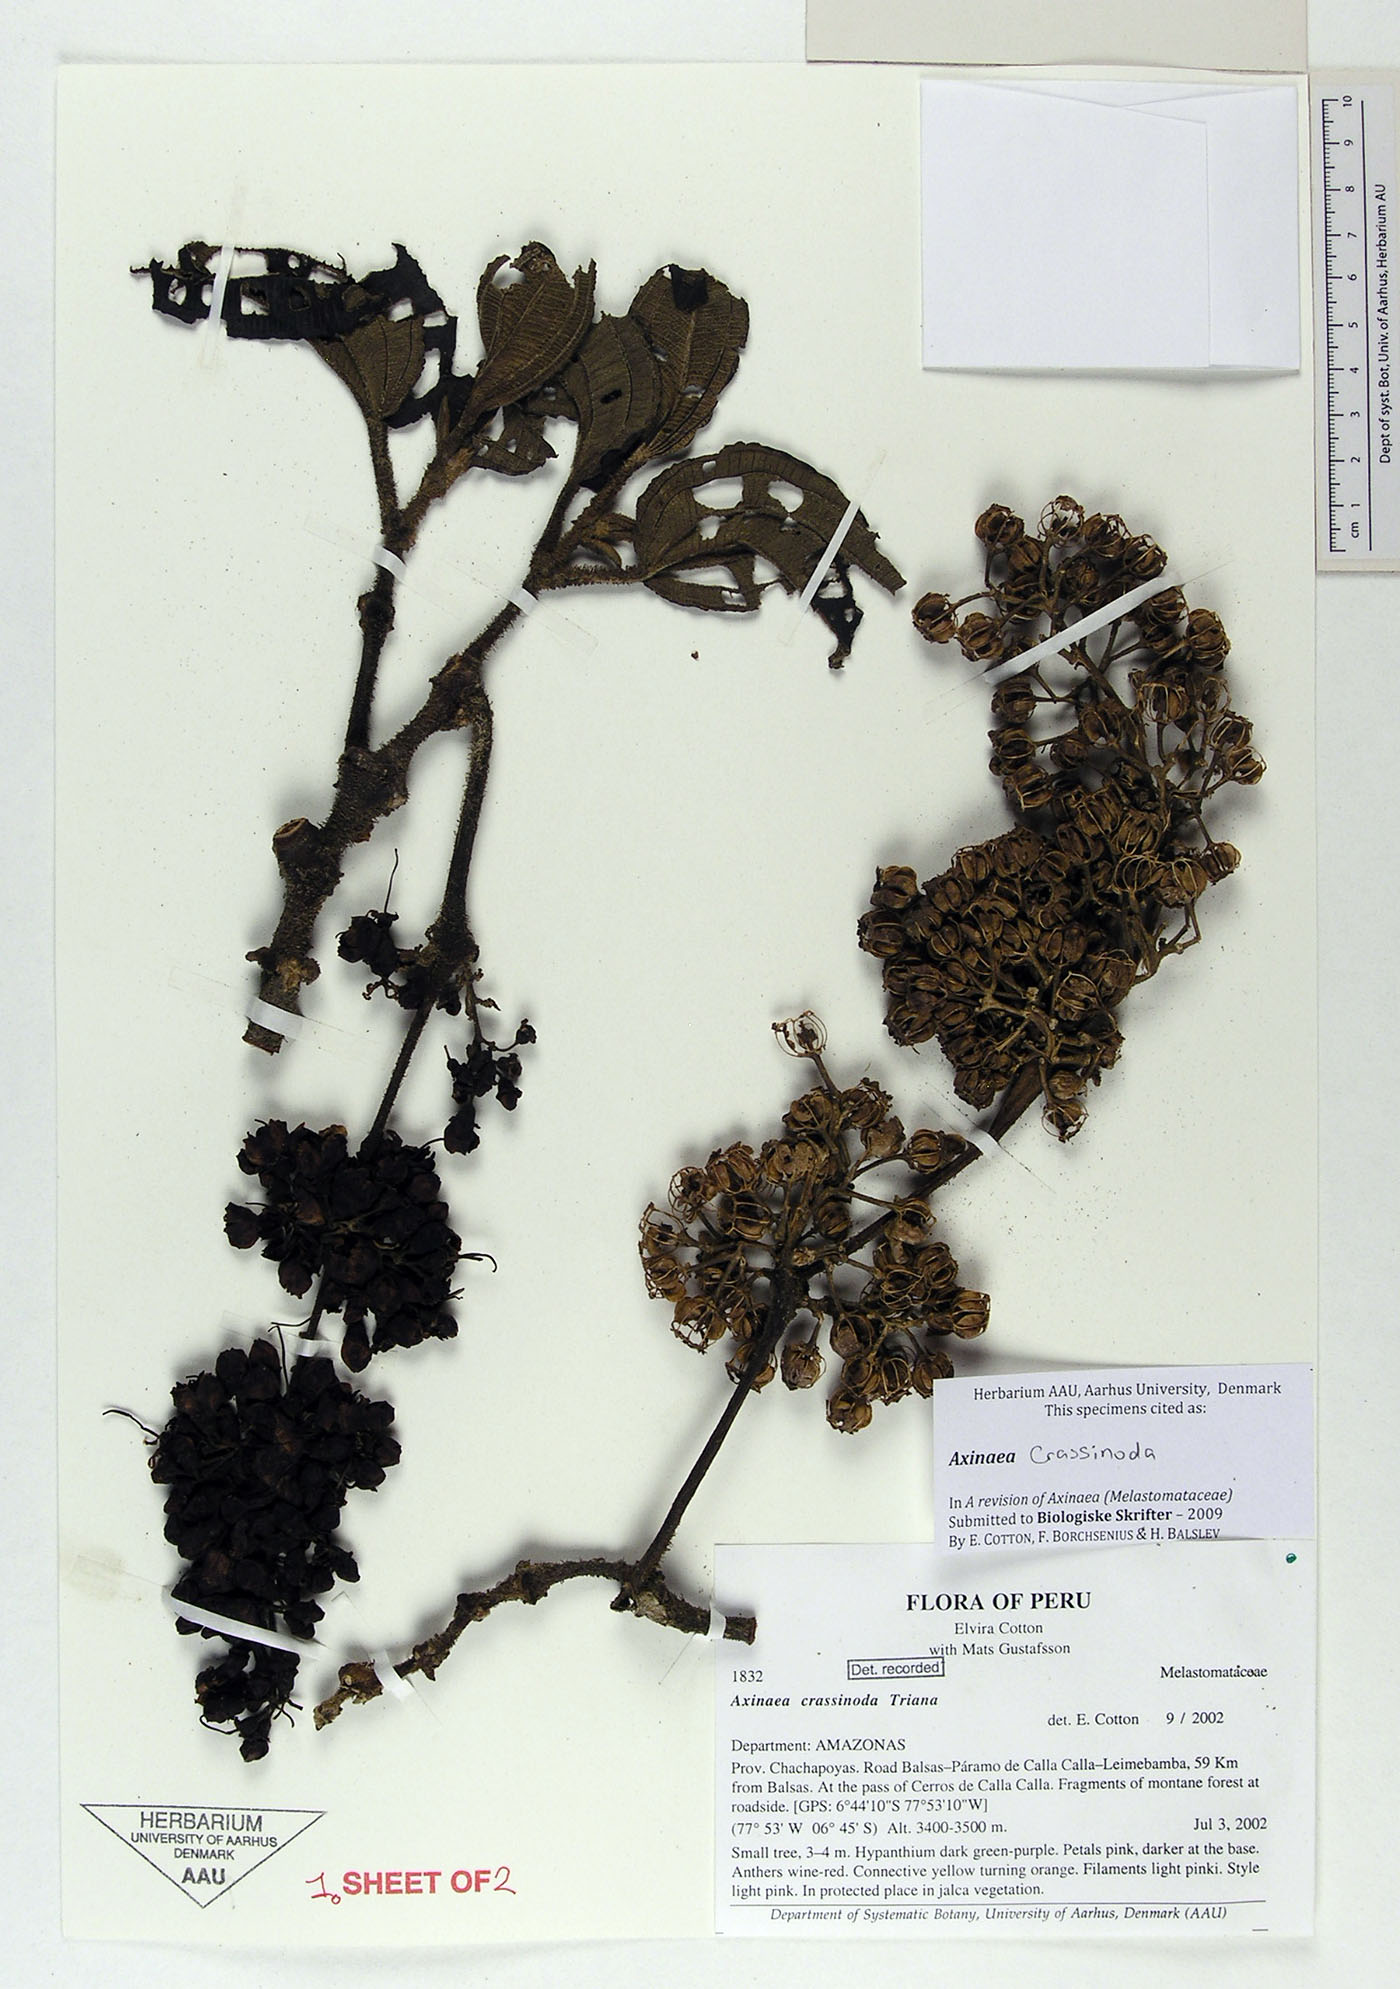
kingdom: Plantae
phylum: Tracheophyta
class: Magnoliopsida
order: Myrtales
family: Melastomataceae
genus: Axinaea
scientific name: Axinaea crassinoda
